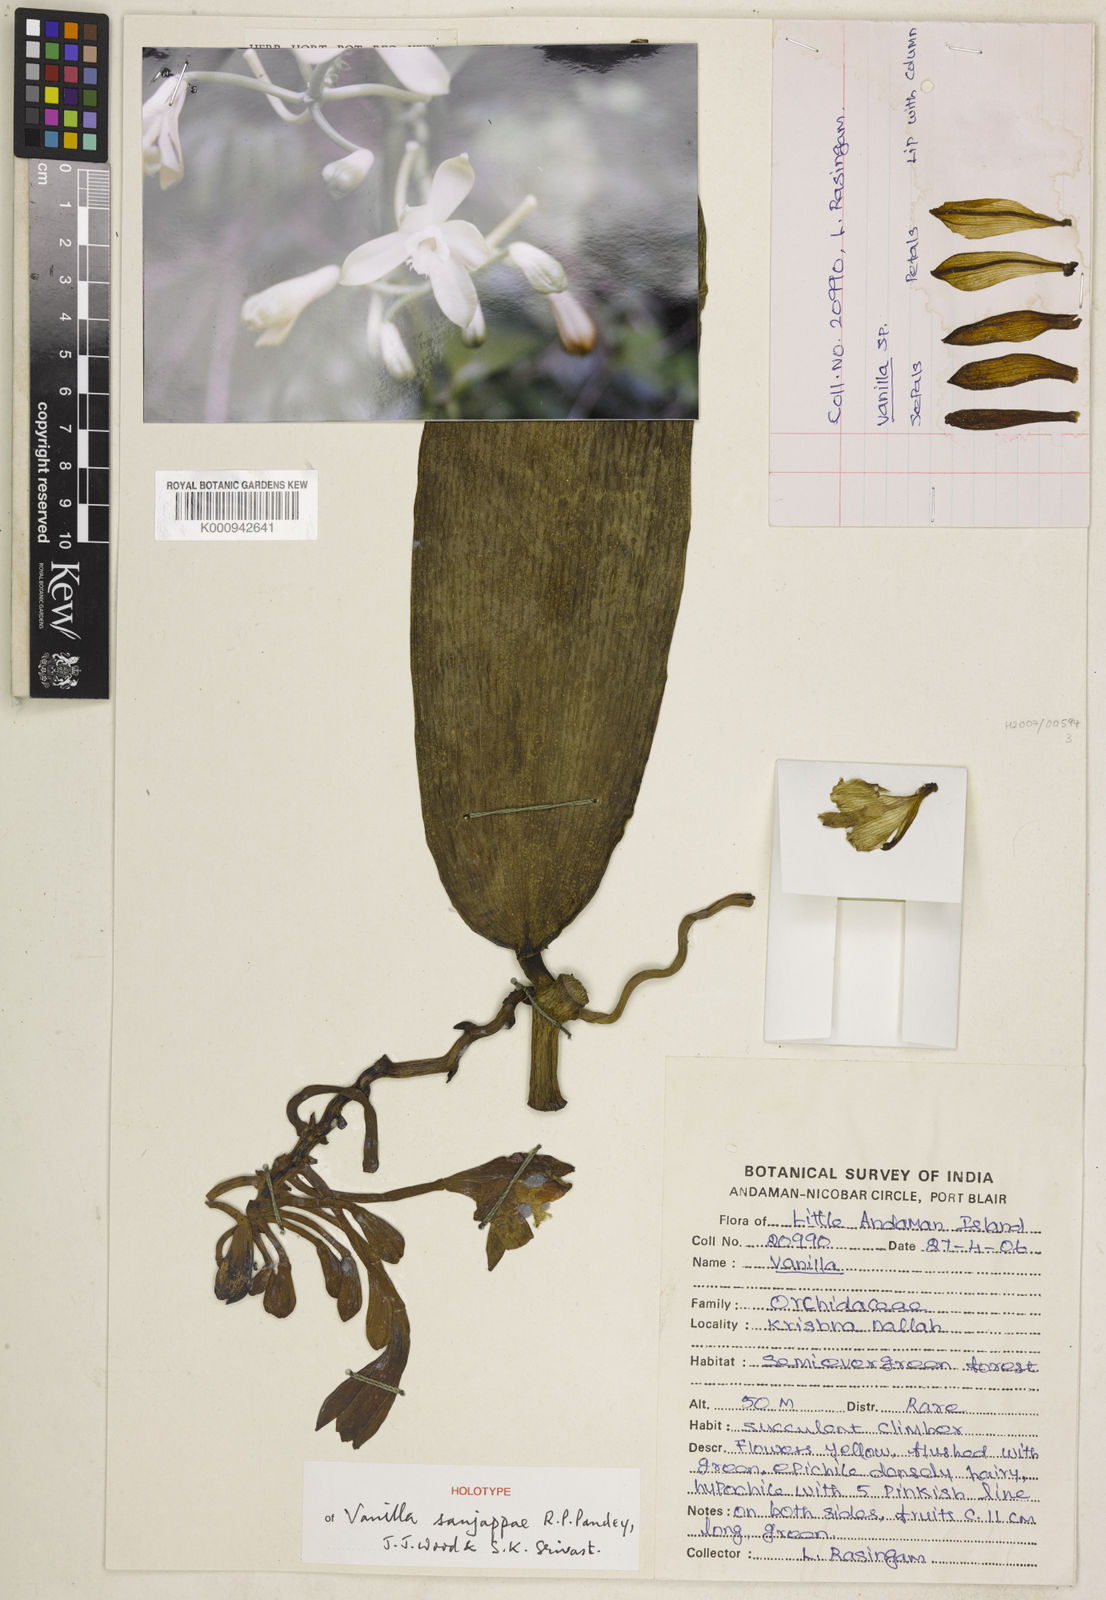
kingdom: Plantae
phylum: Tracheophyta
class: Liliopsida
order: Asparagales
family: Orchidaceae
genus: Vanilla
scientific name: Vanilla sanjappae
